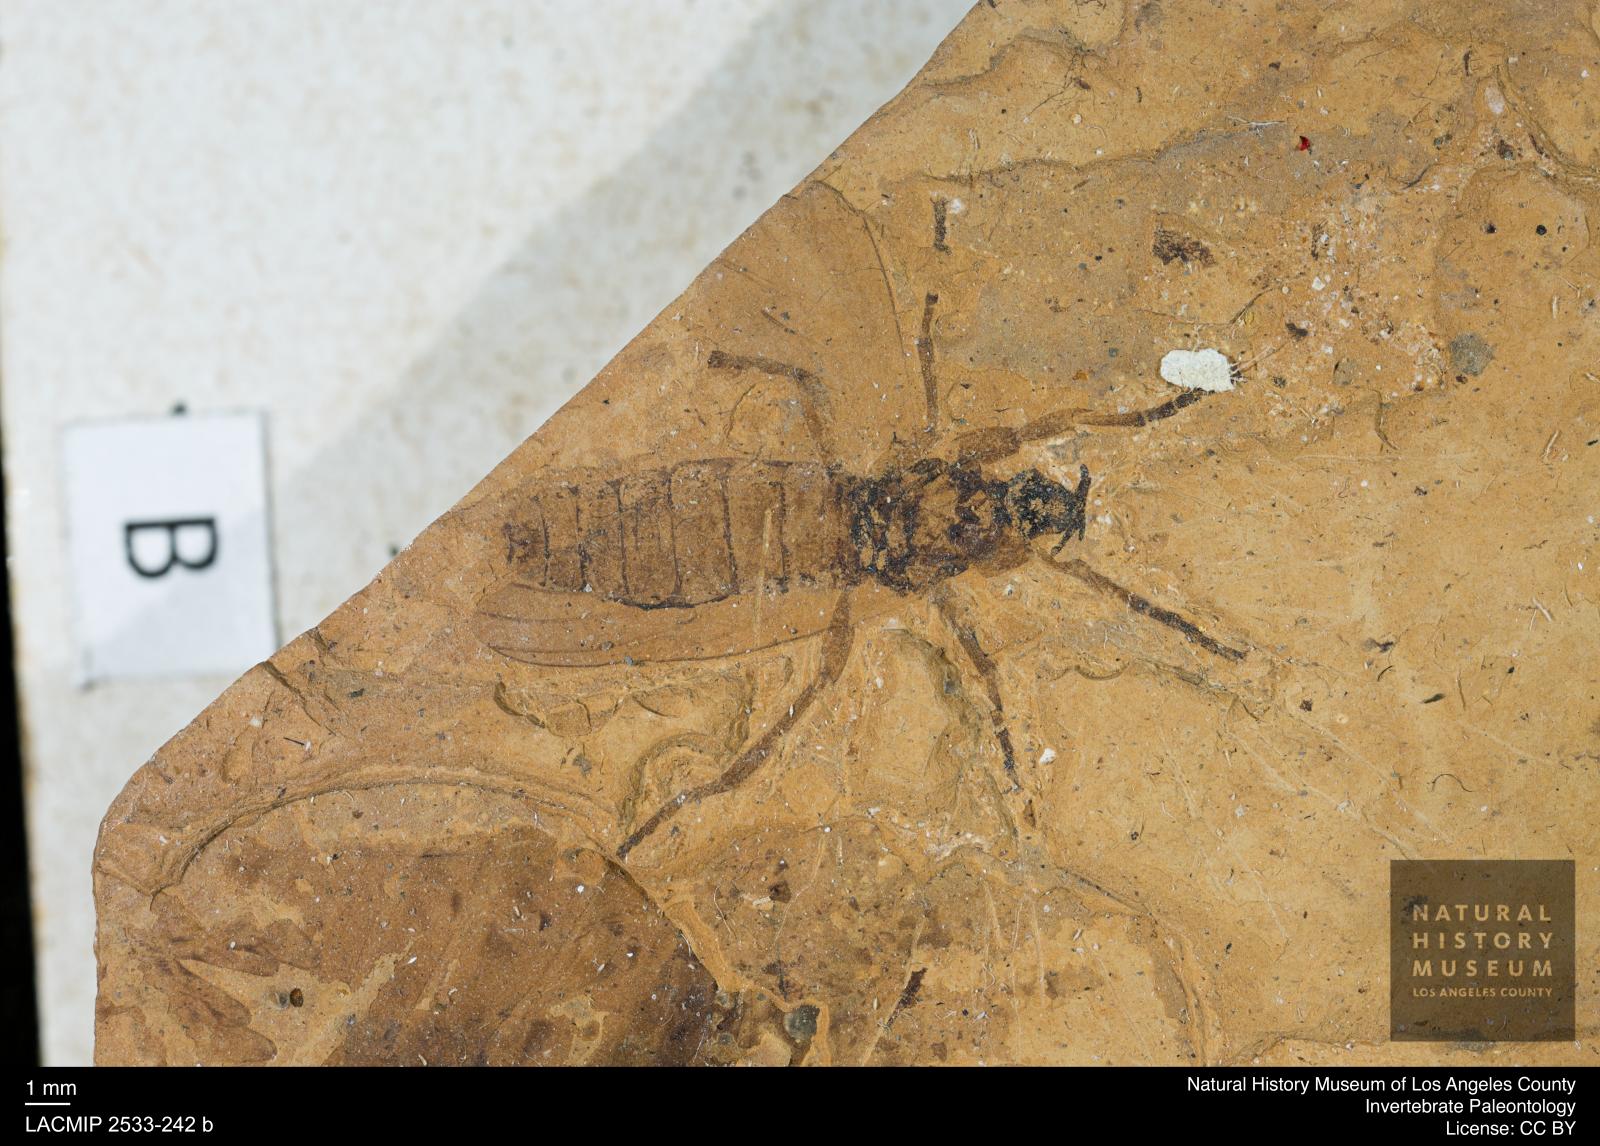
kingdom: Animalia
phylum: Arthropoda
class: Insecta
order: Diptera
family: Bibionidae
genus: Bibio
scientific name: Bibio rottensis
